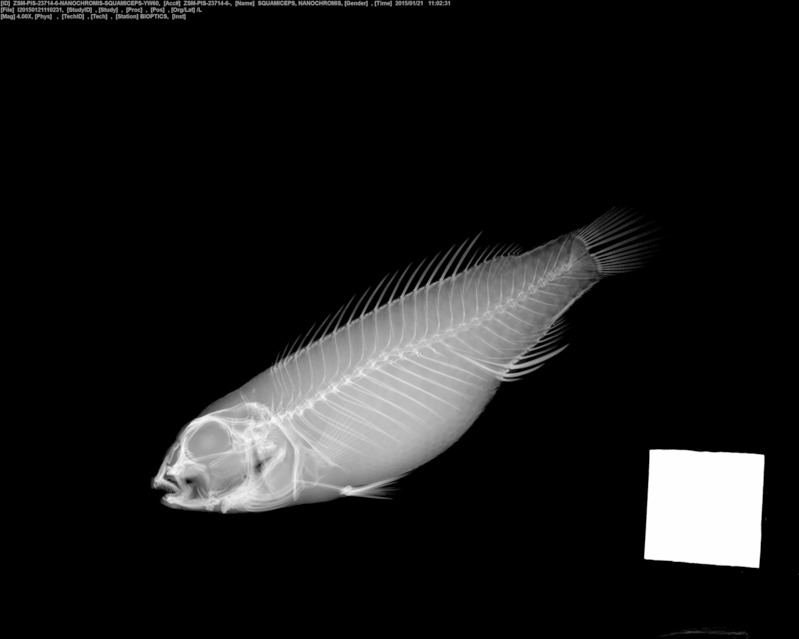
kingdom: Animalia
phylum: Chordata
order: Perciformes
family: Cichlidae
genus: Congochromis
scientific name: Congochromis squamiceps
